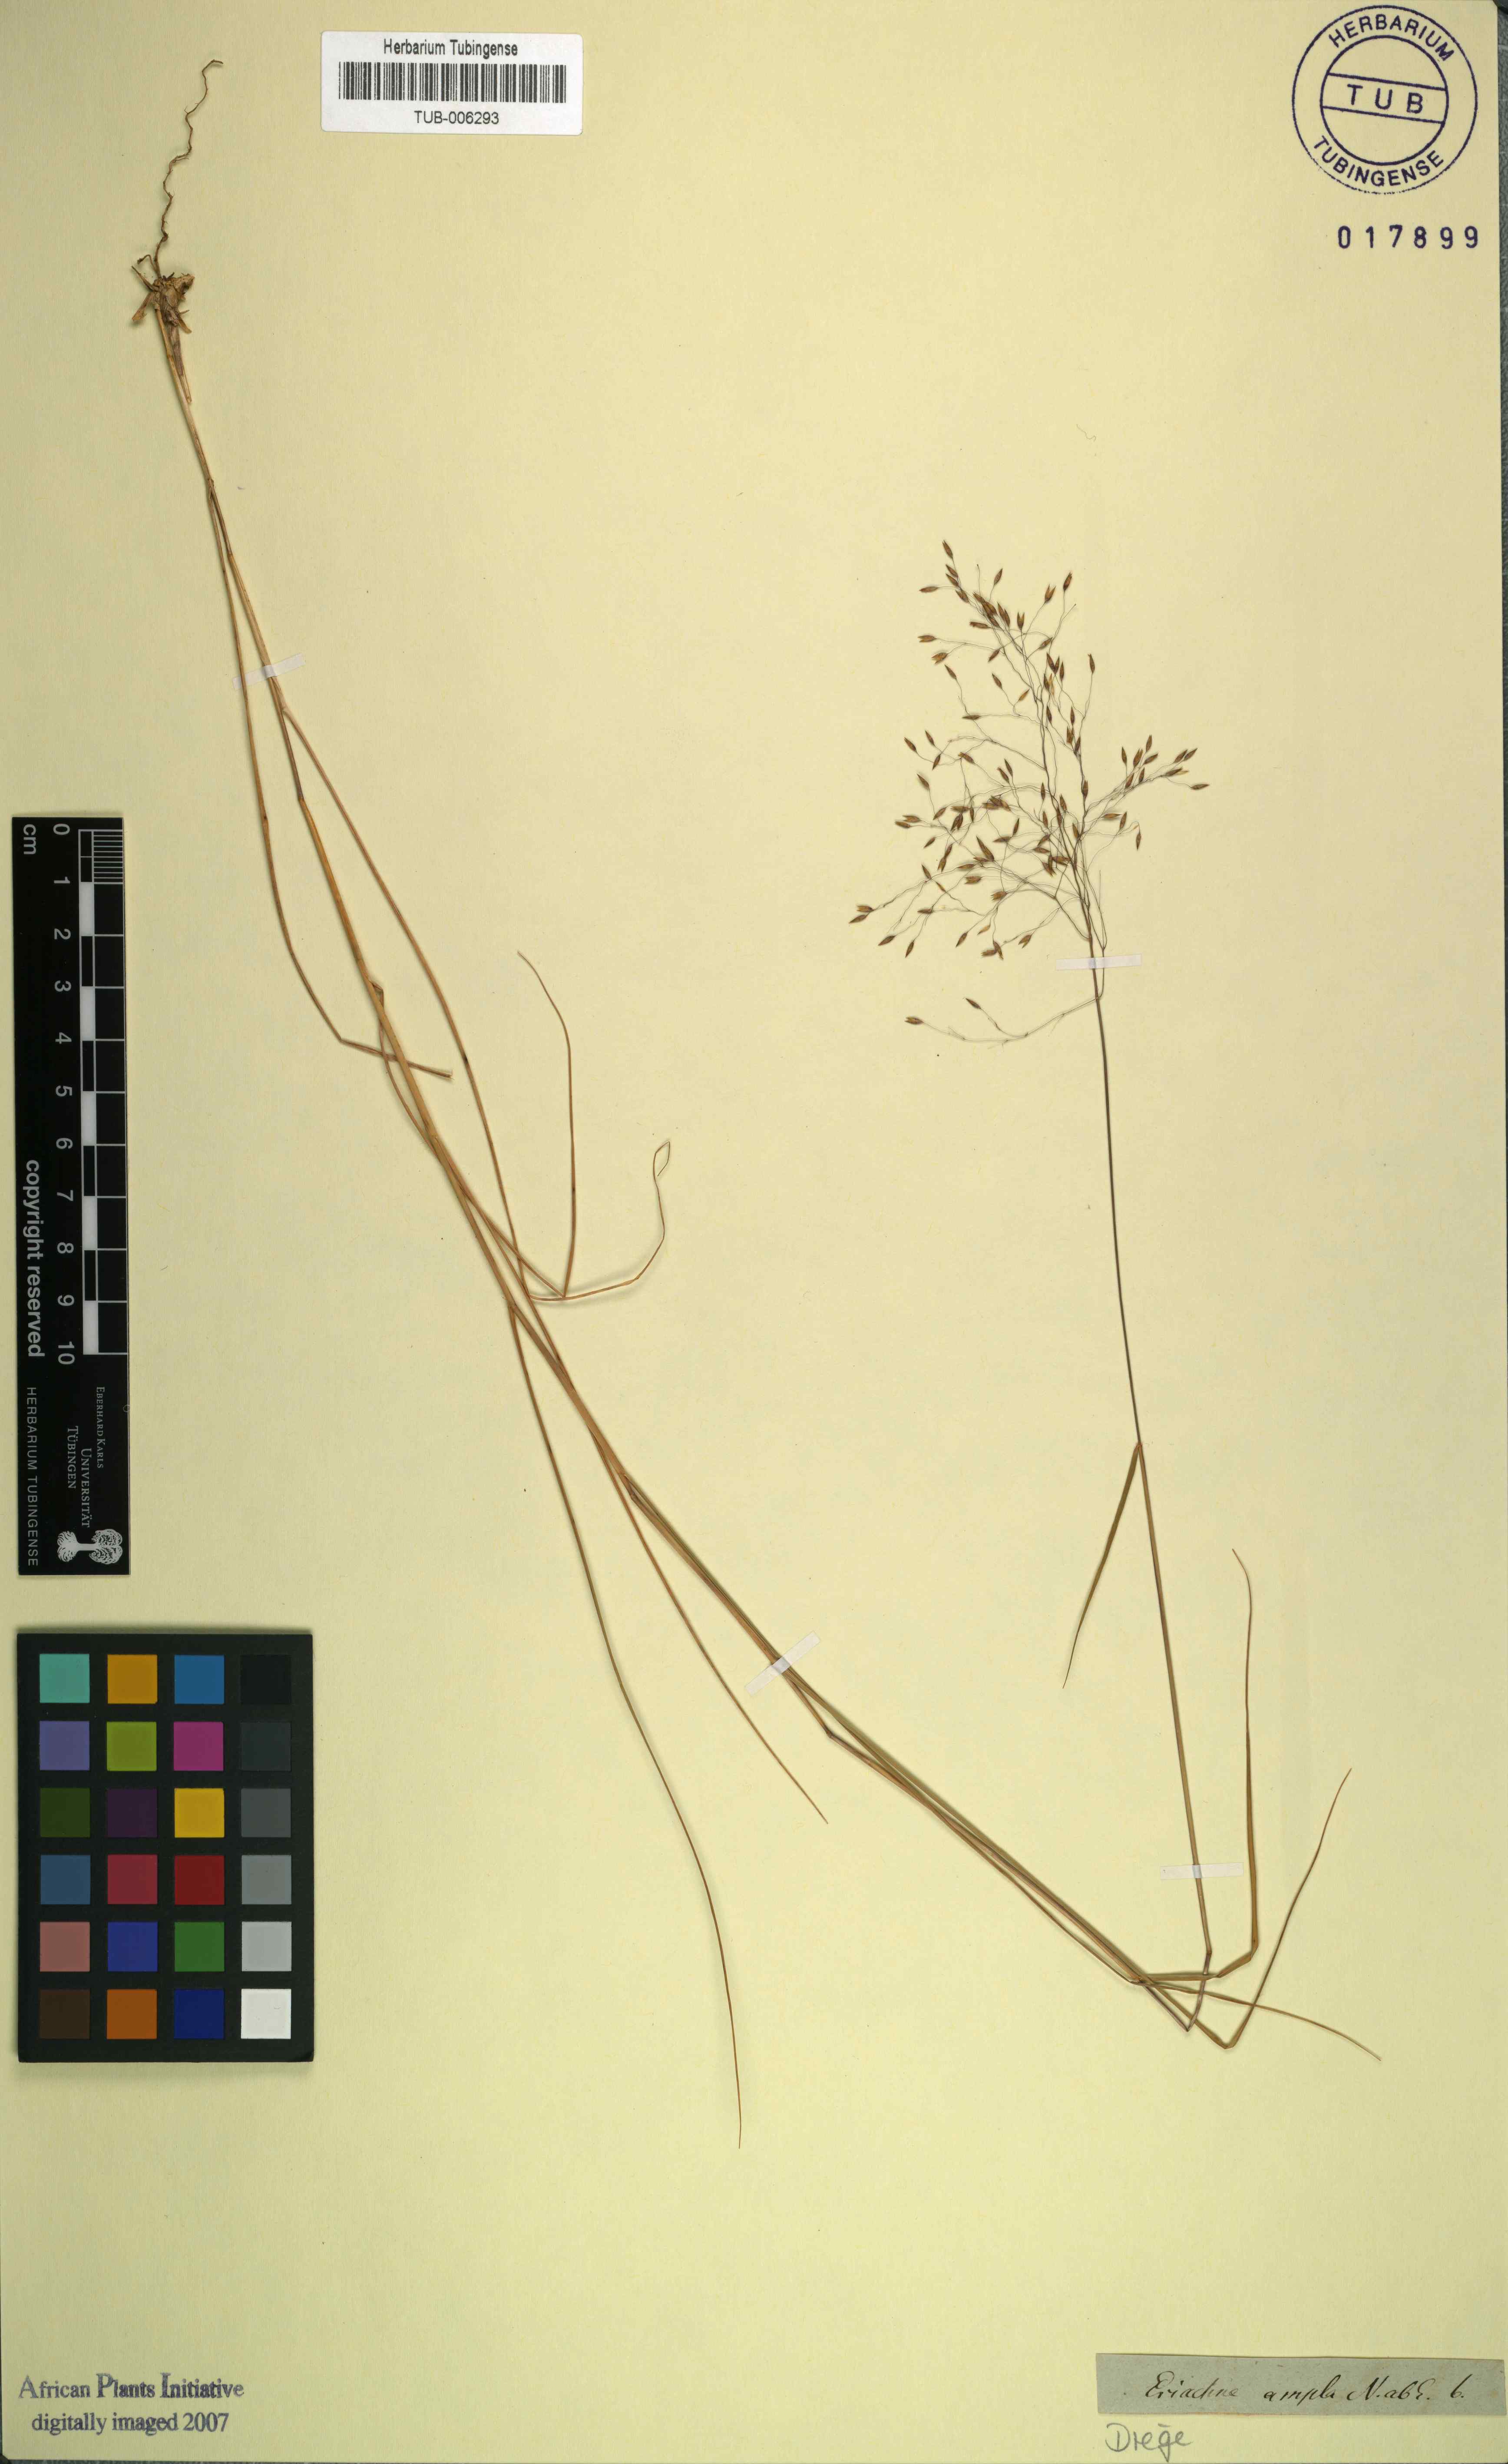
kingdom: Plantae
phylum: Tracheophyta
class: Liliopsida
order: Poales
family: Poaceae
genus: Pentameris
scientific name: Pentameris ampla
